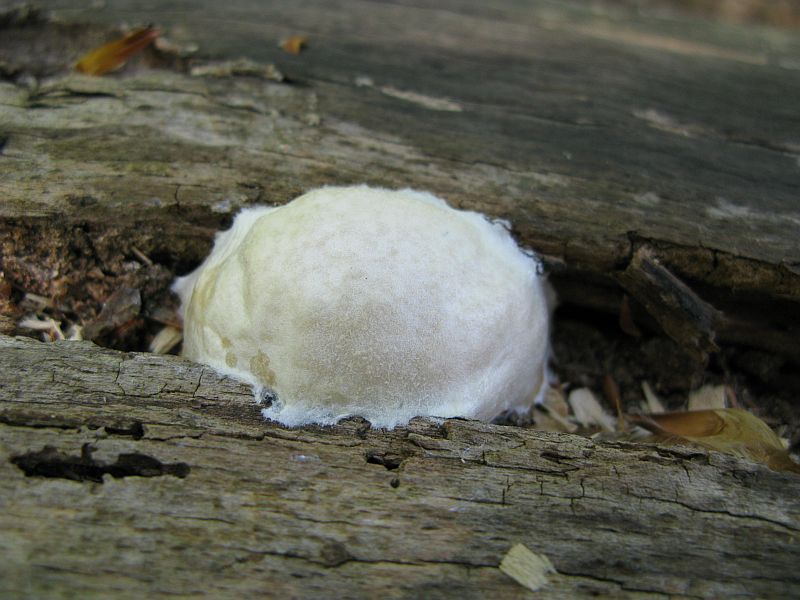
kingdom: Protozoa
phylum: Mycetozoa
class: Myxomycetes
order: Cribrariales
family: Tubiferaceae
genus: Reticularia
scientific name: Reticularia lycoperdon
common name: skinnende støvpude
